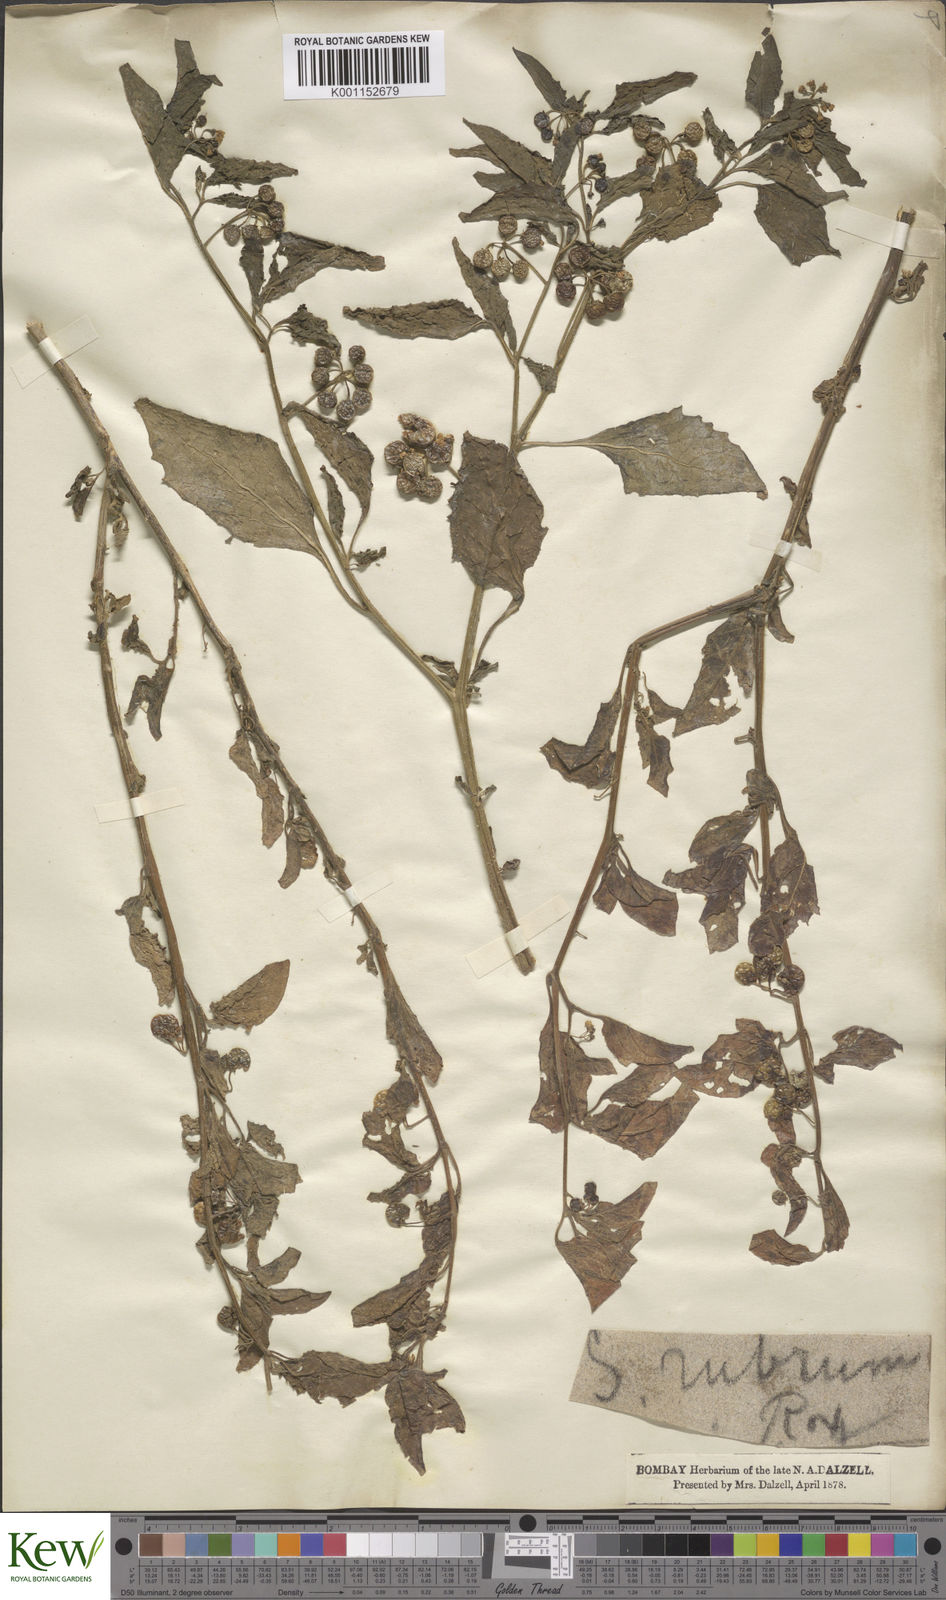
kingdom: Plantae
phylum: Tracheophyta
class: Magnoliopsida
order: Solanales
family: Solanaceae
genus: Solanum
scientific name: Solanum nigrum
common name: Black nightshade
